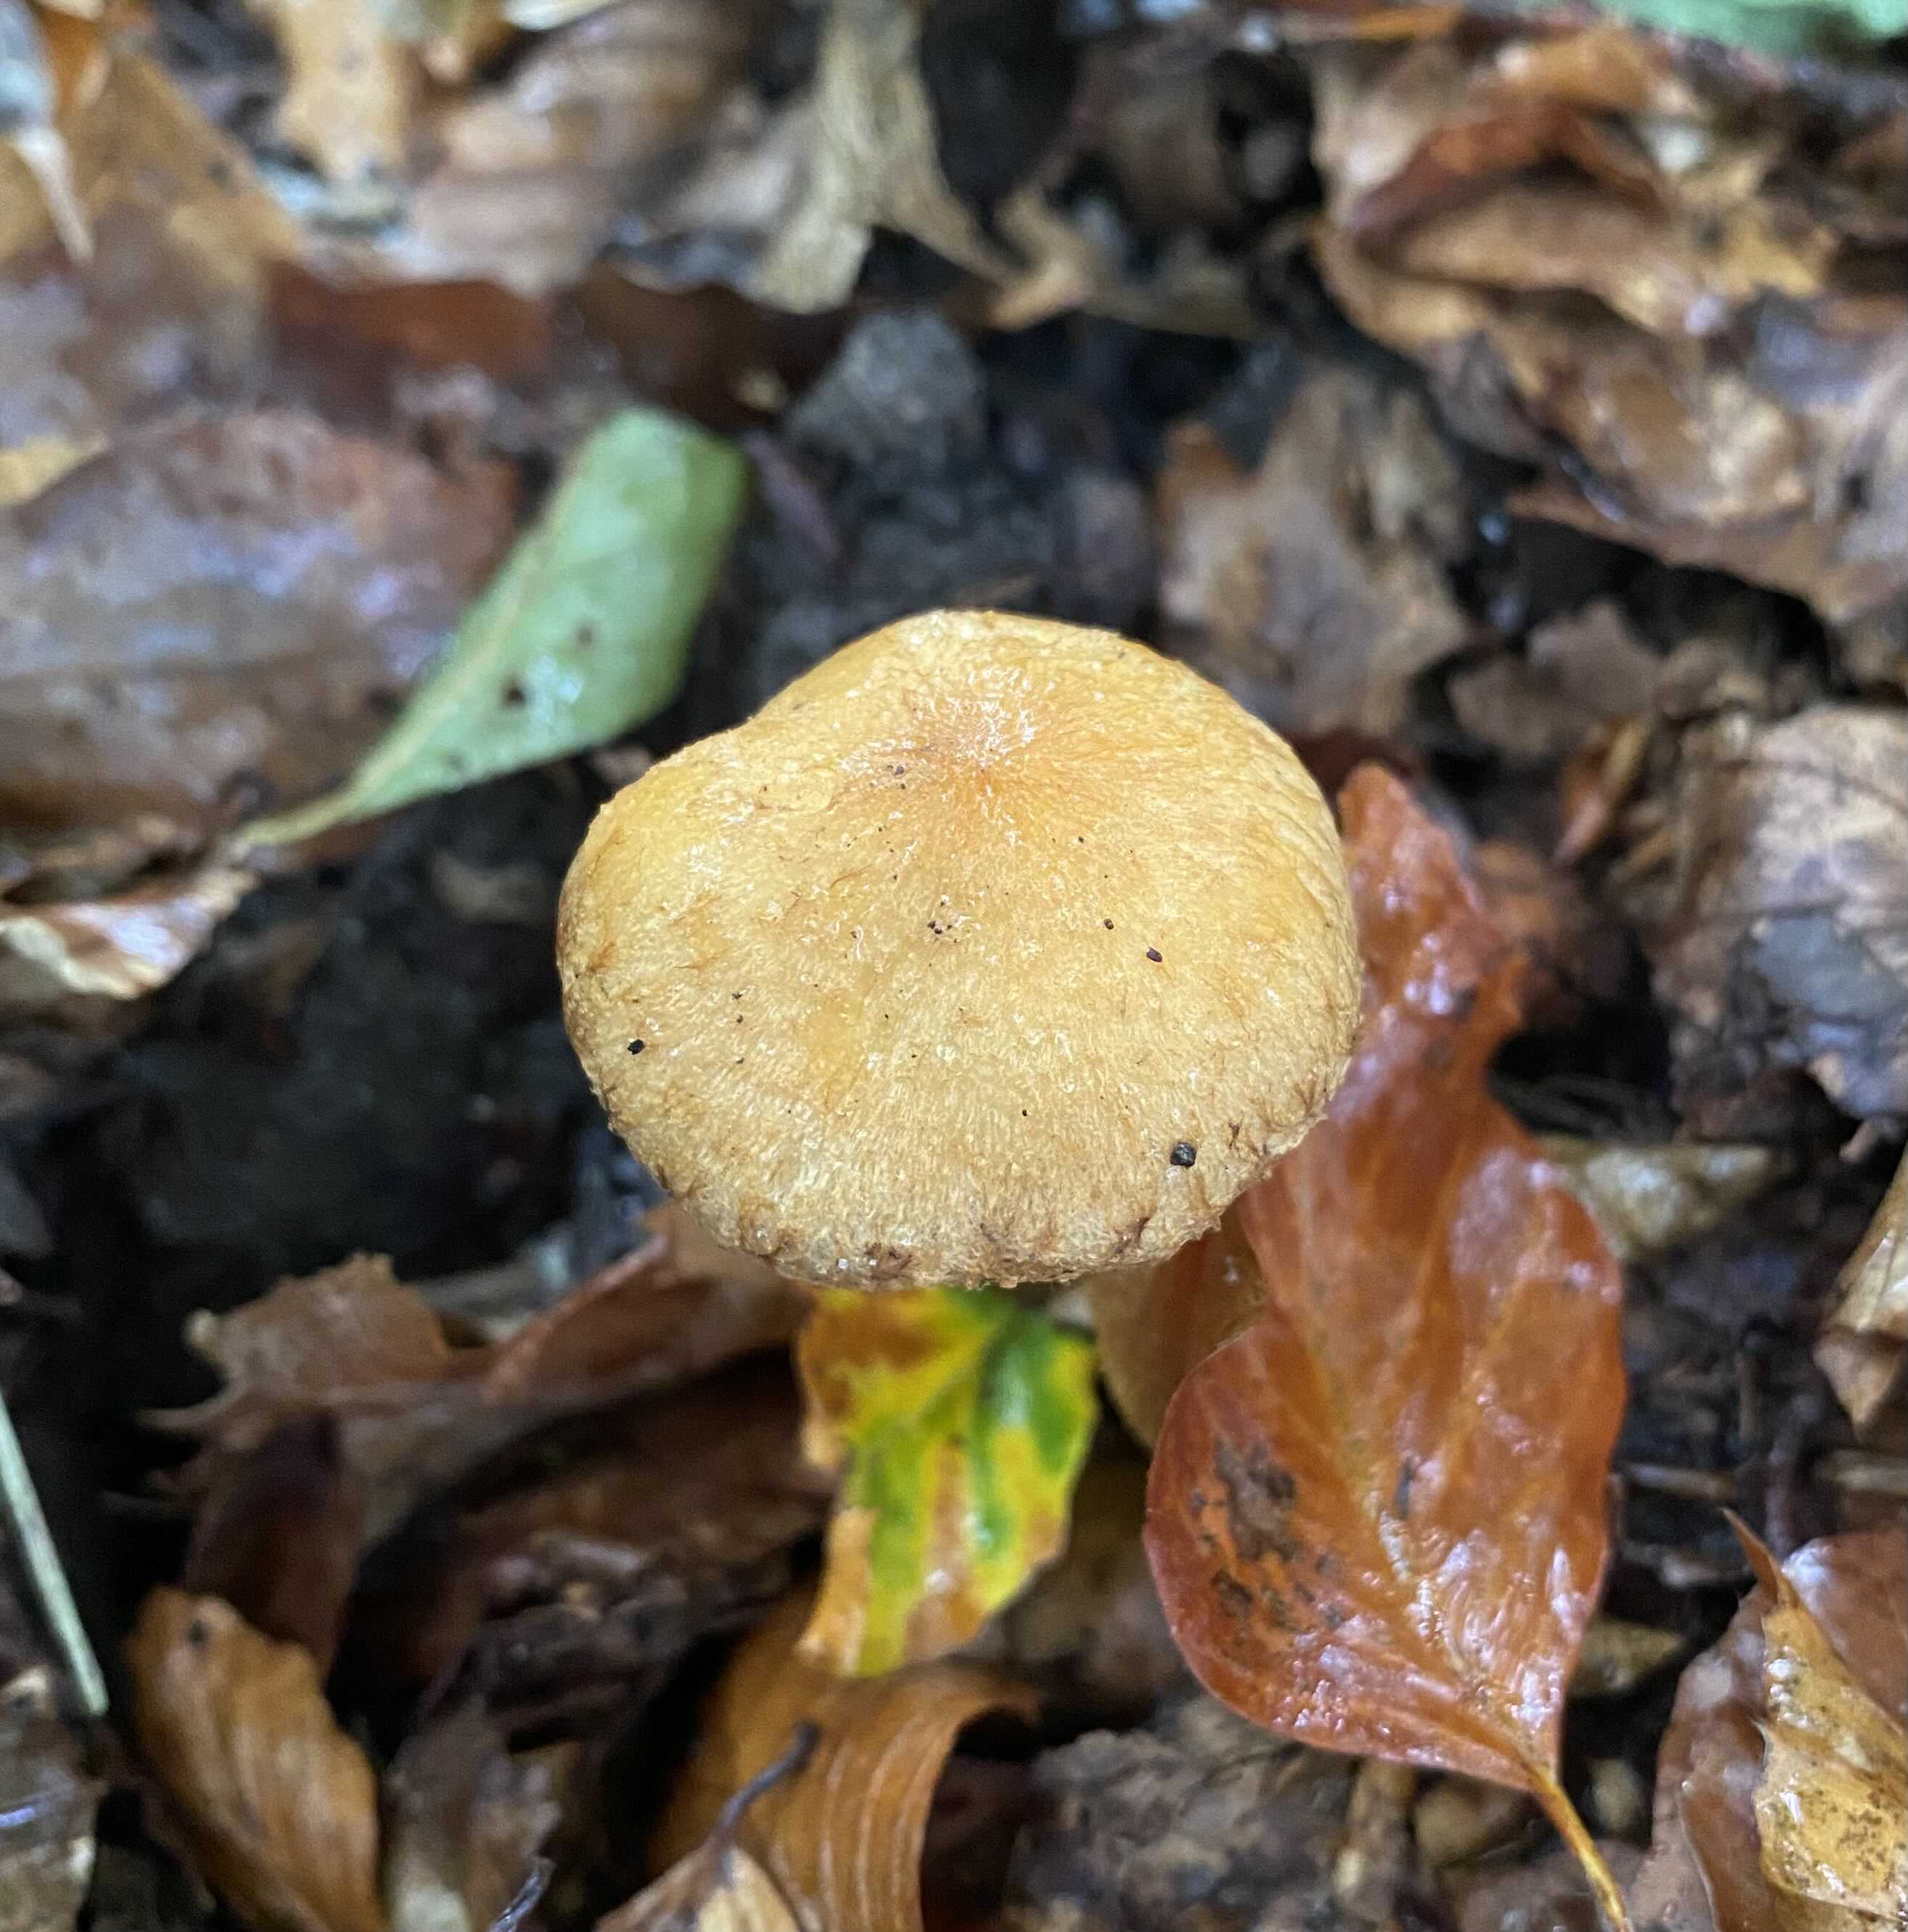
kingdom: Fungi
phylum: Basidiomycota
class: Agaricomycetes
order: Agaricales
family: Psathyrellaceae
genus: Lacrymaria
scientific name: Lacrymaria
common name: mørkhat
